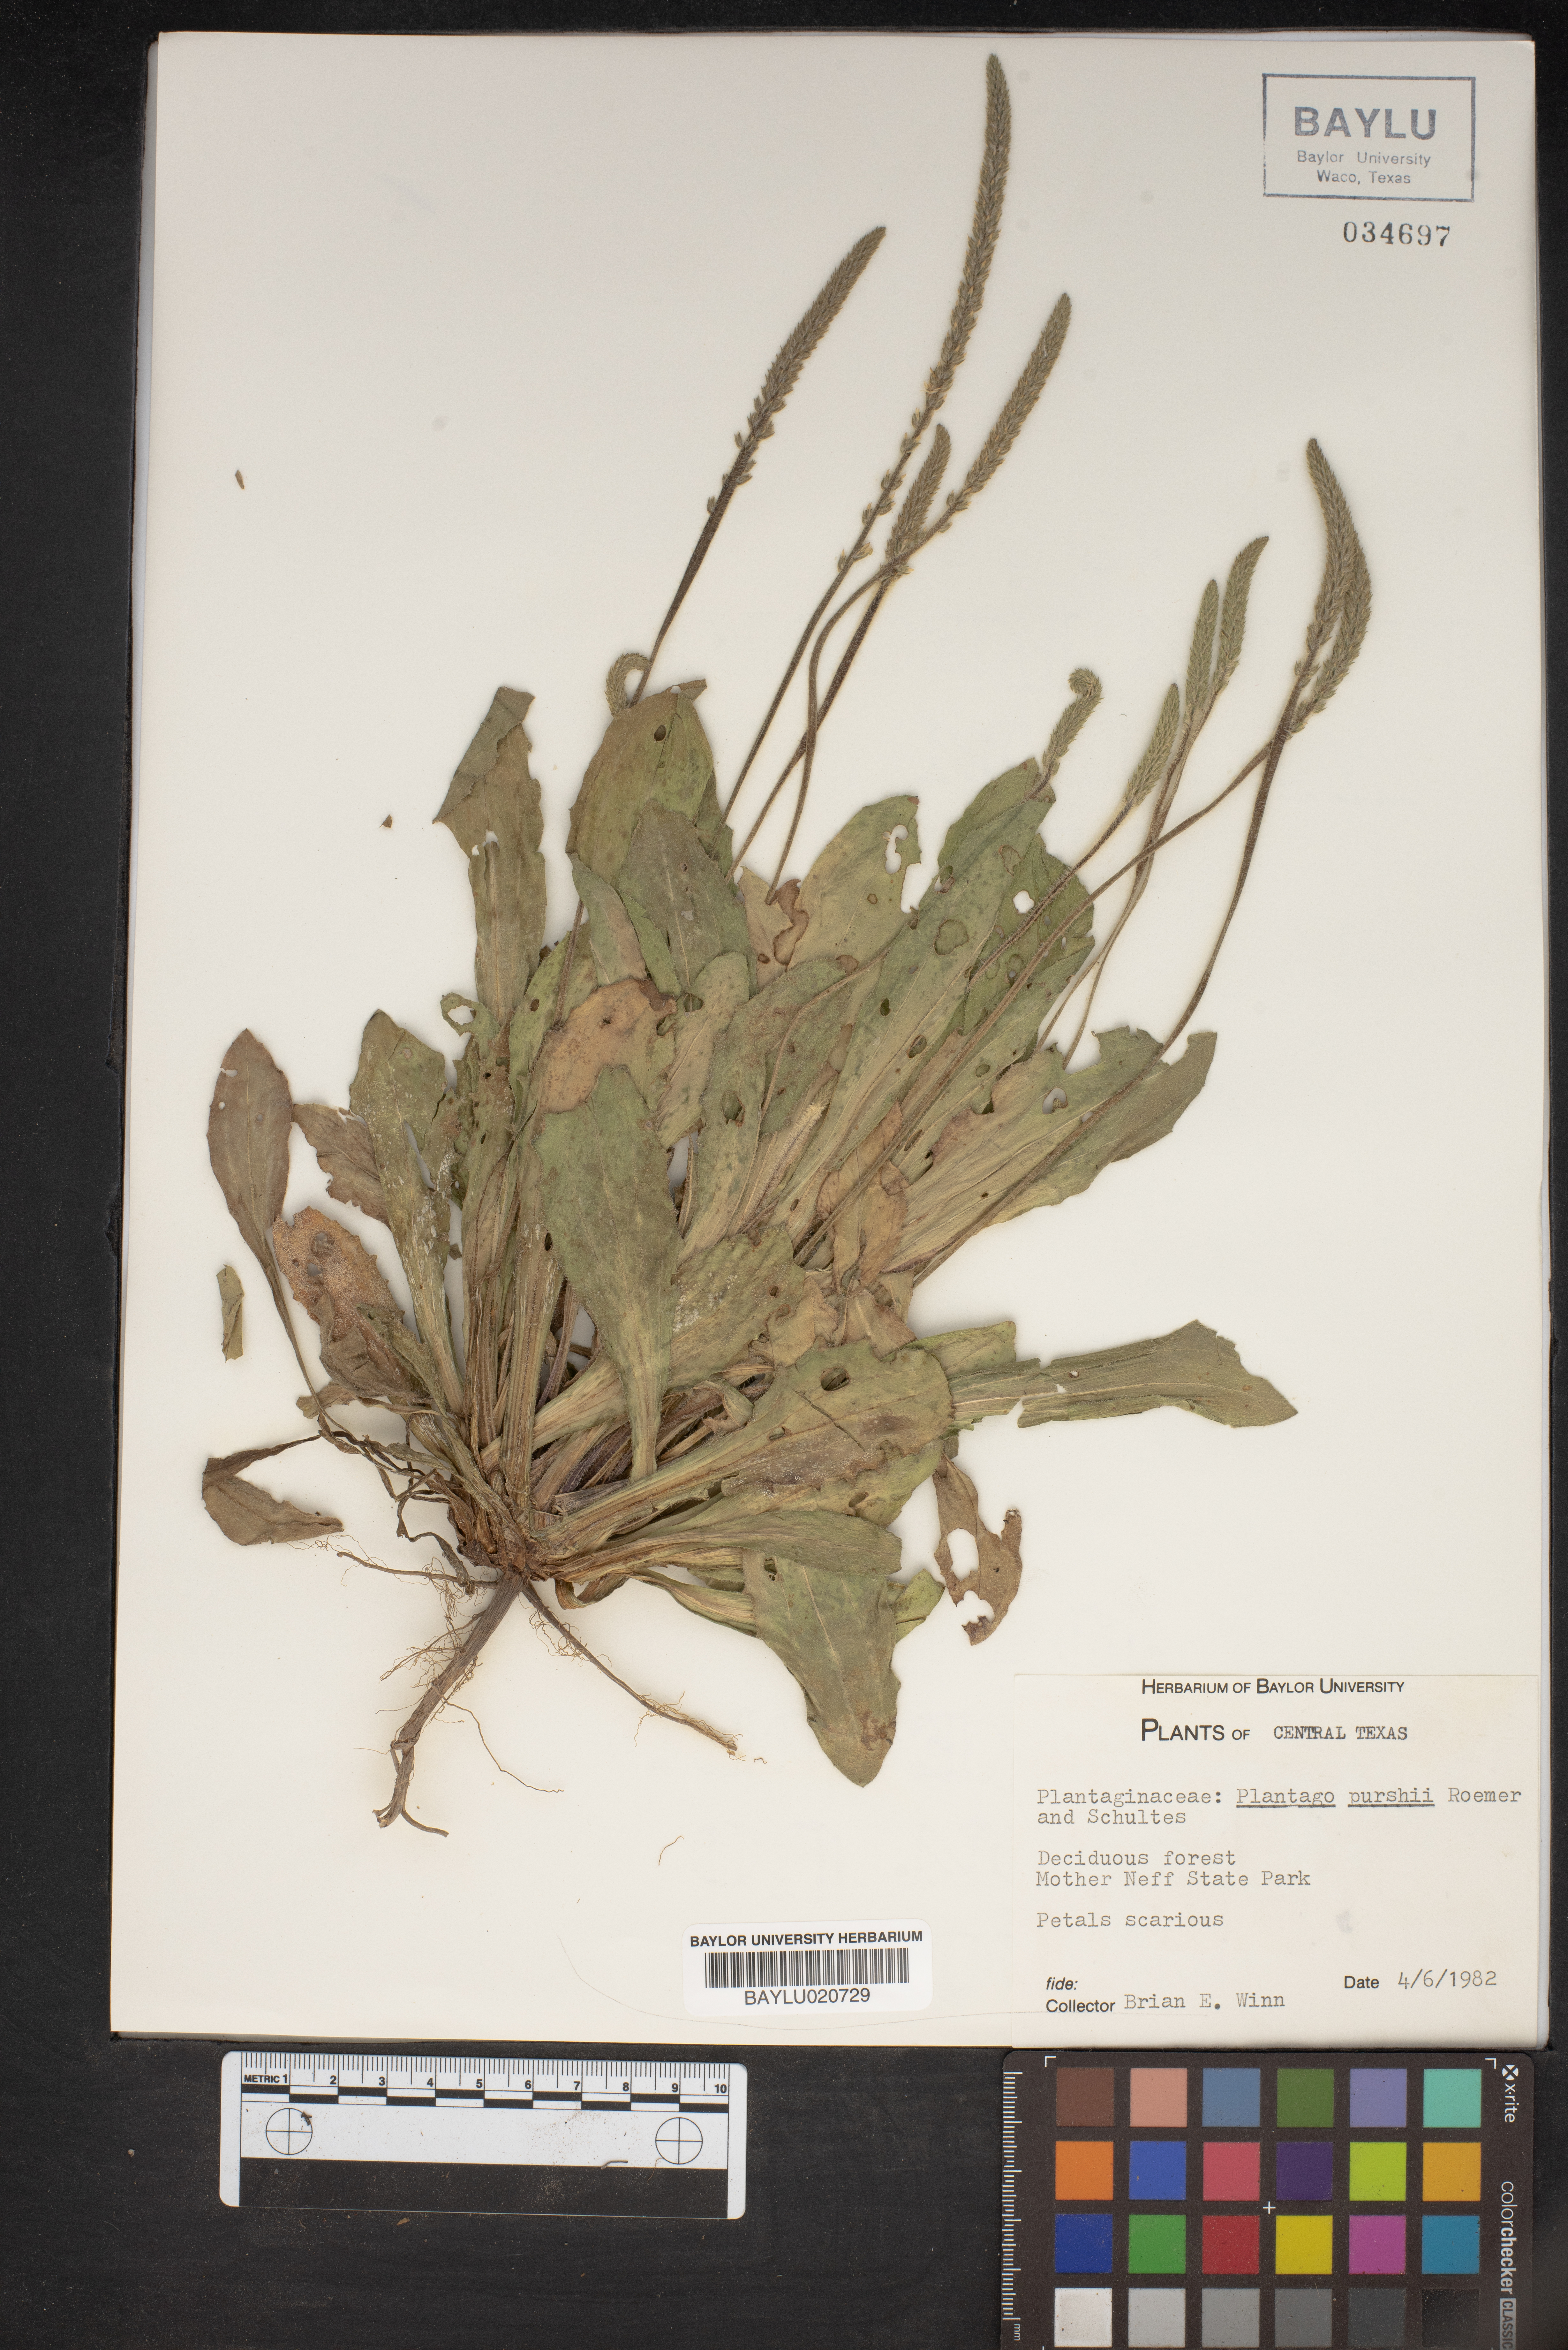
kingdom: Plantae
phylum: Tracheophyta
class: Magnoliopsida
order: Lamiales
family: Plantaginaceae
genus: Plantago
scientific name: Plantago patagonica
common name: Patagonia indian-wheat
